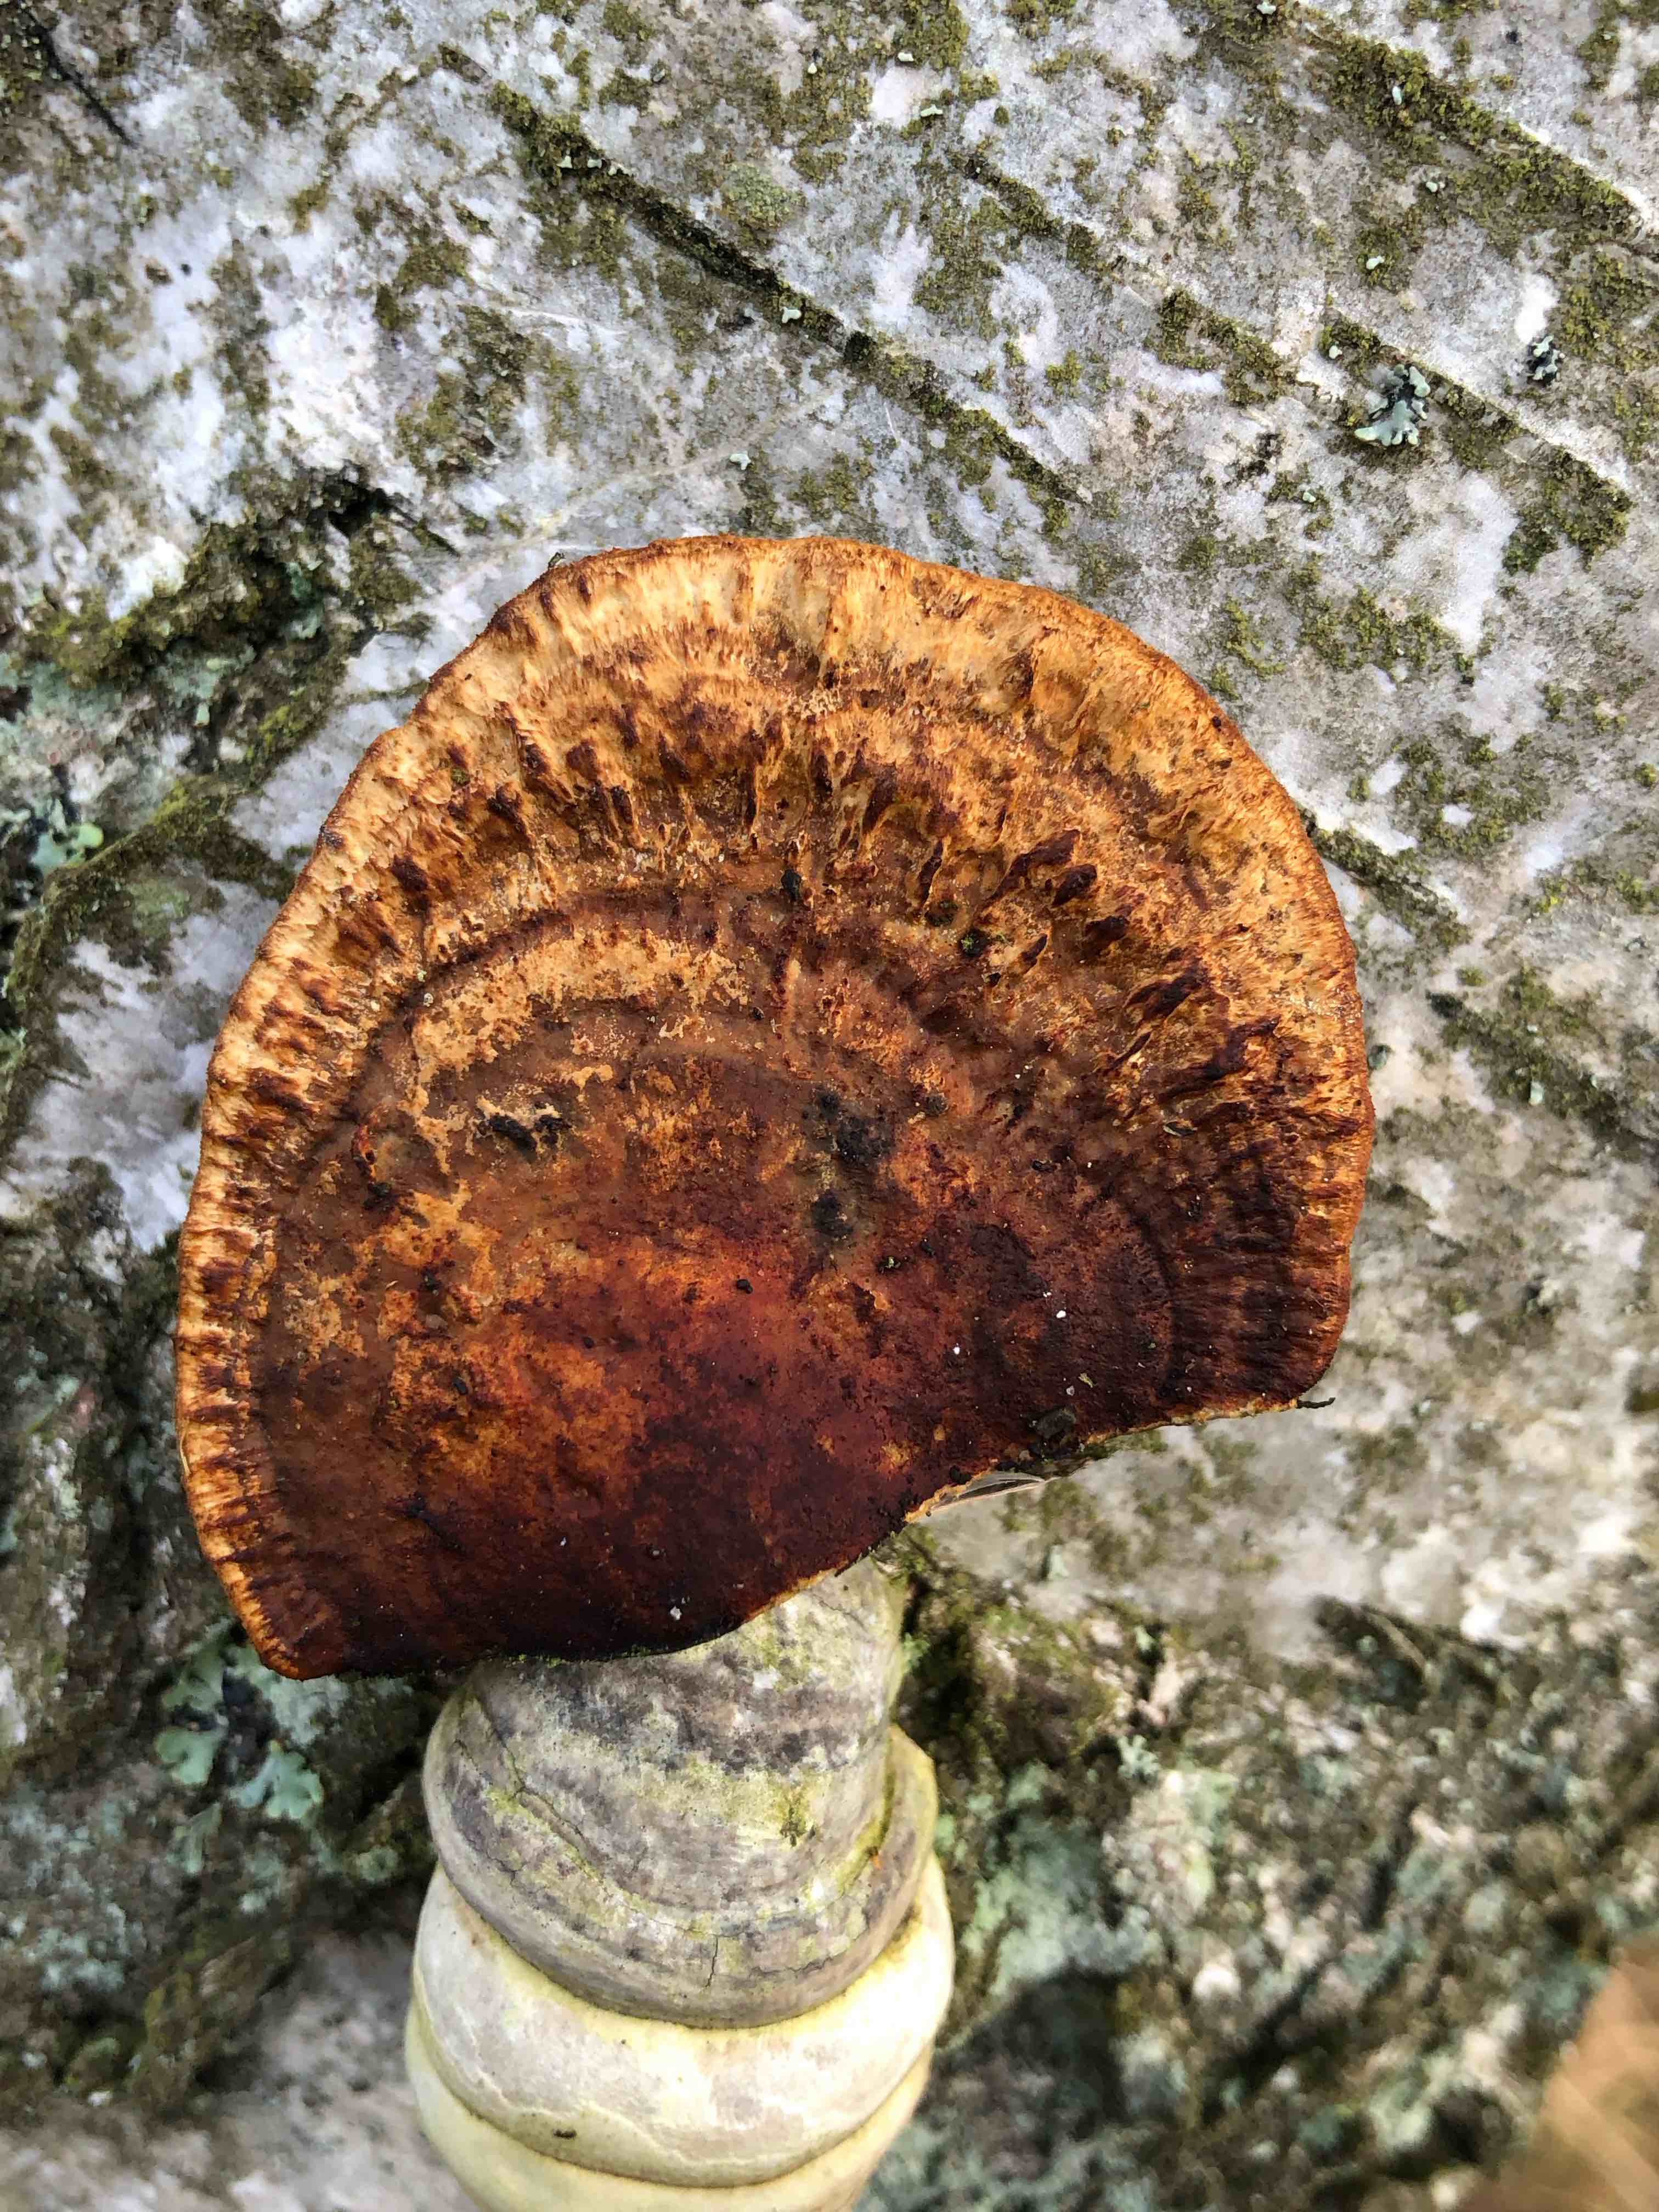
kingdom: Fungi
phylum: Basidiomycota
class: Agaricomycetes
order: Polyporales
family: Polyporaceae
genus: Daedaleopsis
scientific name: Daedaleopsis confragosa
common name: rødmende læderporesvamp
